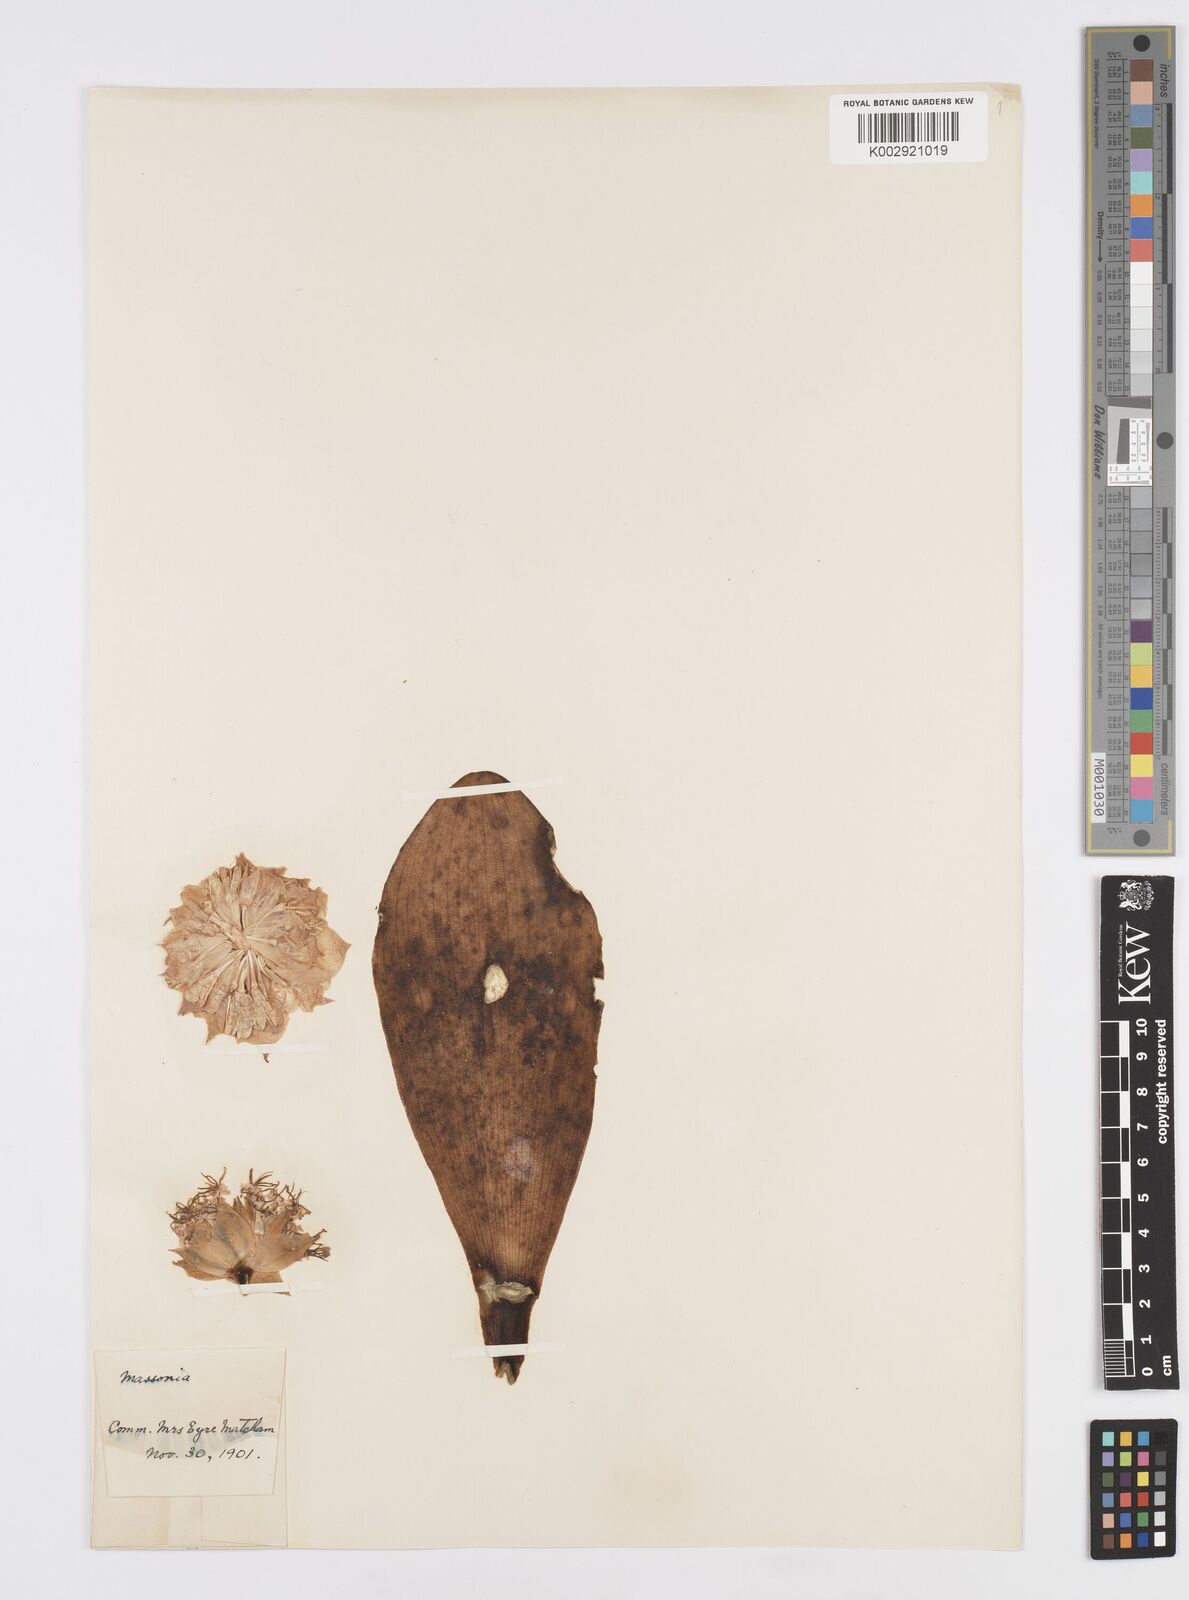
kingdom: Plantae
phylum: Tracheophyta
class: Liliopsida
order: Asparagales
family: Asparagaceae
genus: Massonia
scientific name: Massonia echinata
